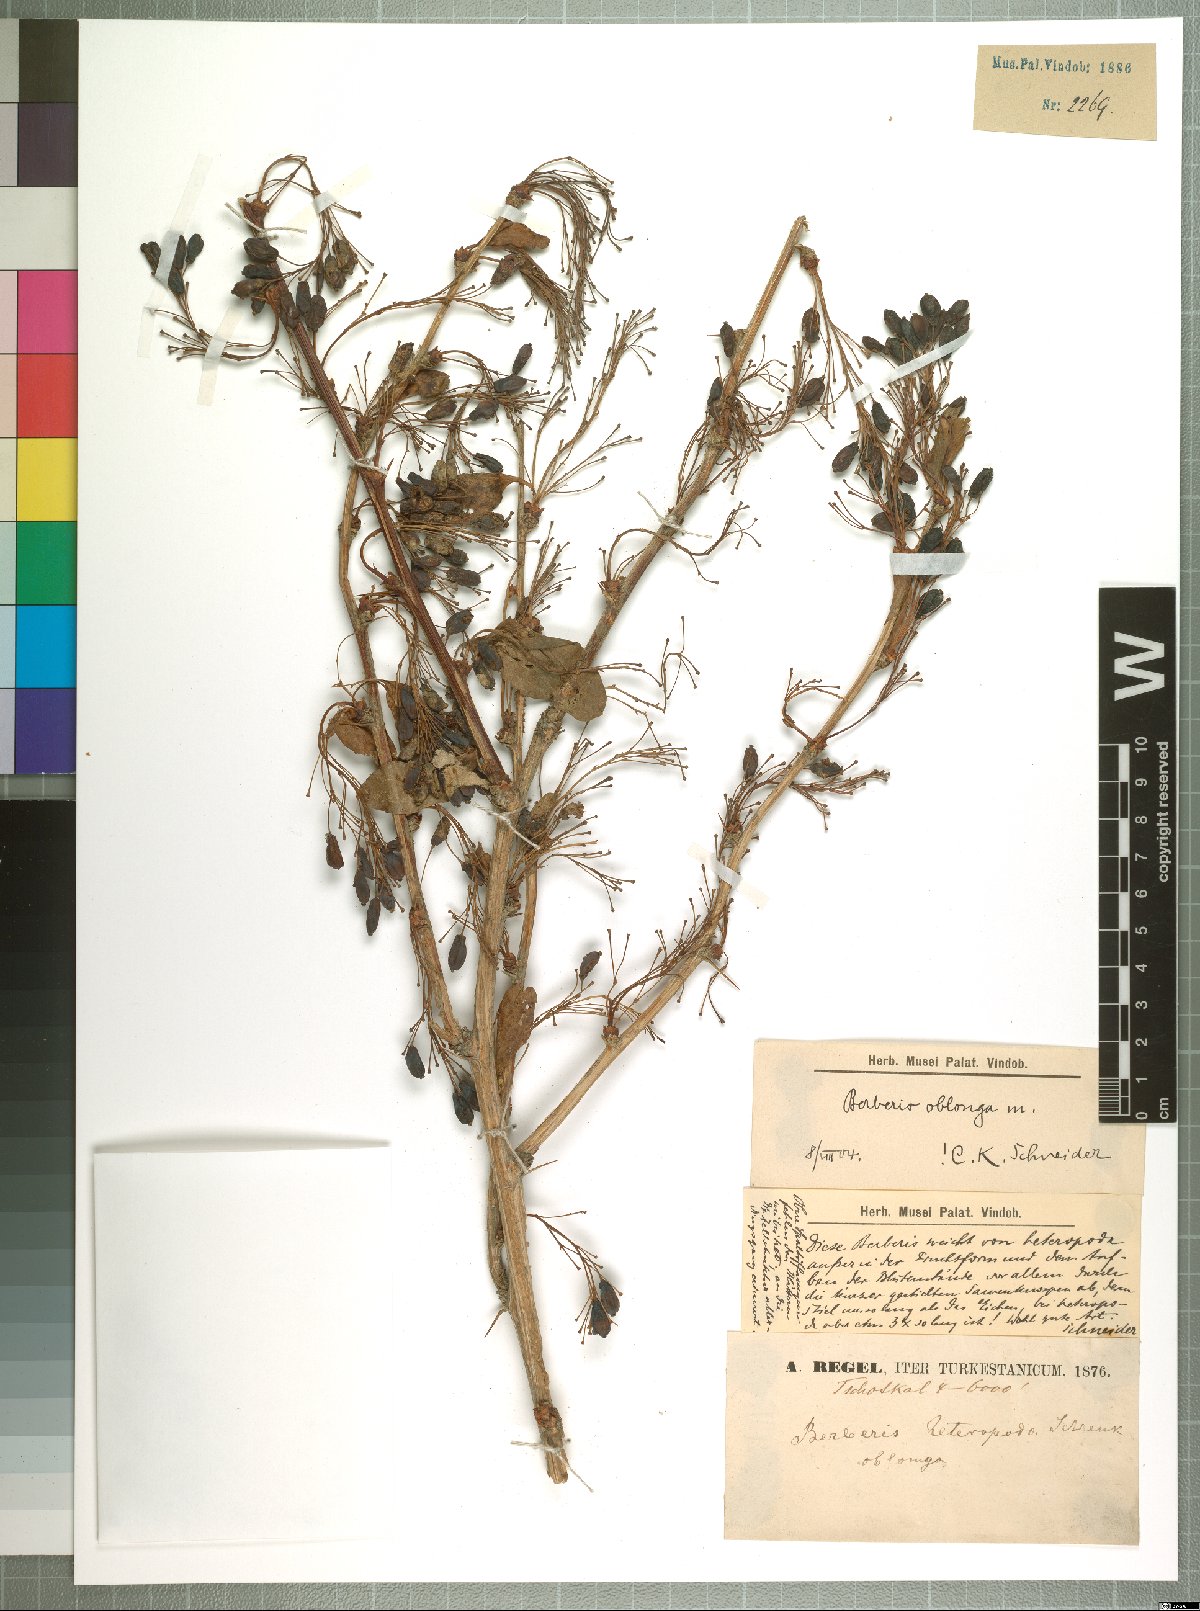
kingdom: Plantae
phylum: Tracheophyta
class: Magnoliopsida
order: Ranunculales
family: Berberidaceae
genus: Berberis
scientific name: Berberis oblonga
